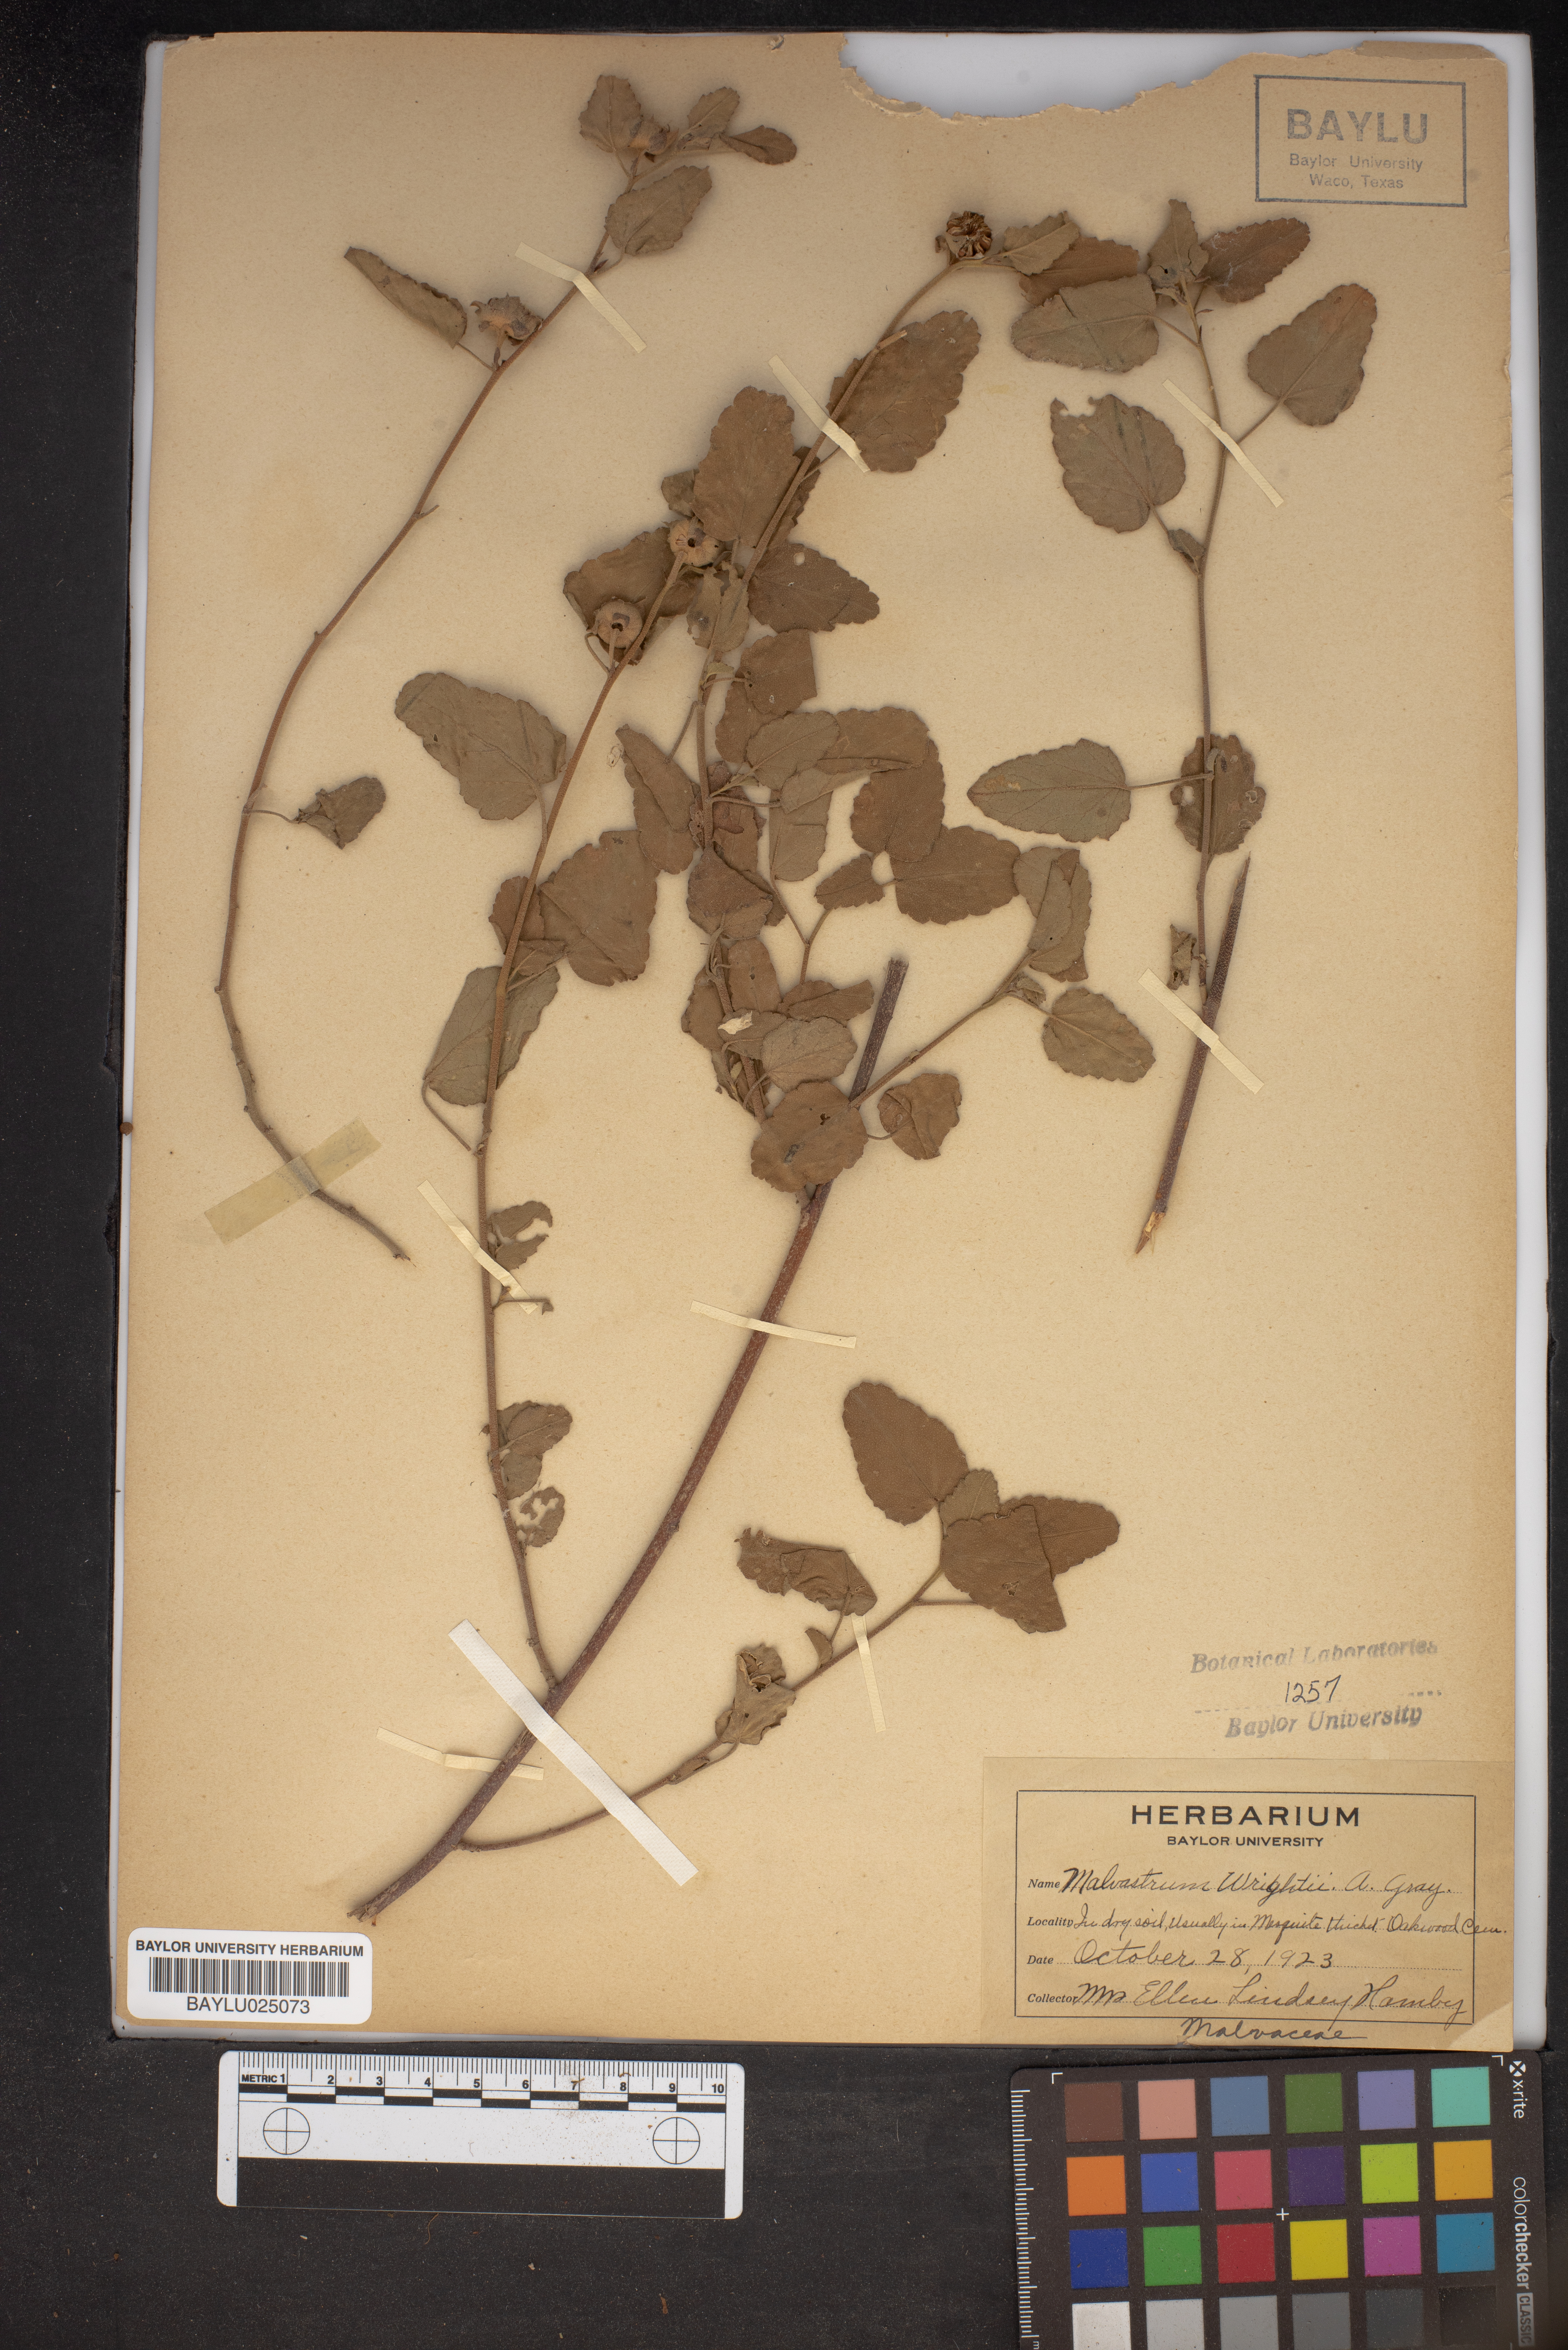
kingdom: Plantae
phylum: Tracheophyta
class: Magnoliopsida
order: Malvales
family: Malvaceae
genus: Malvastrum
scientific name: Malvastrum aurantiacum
